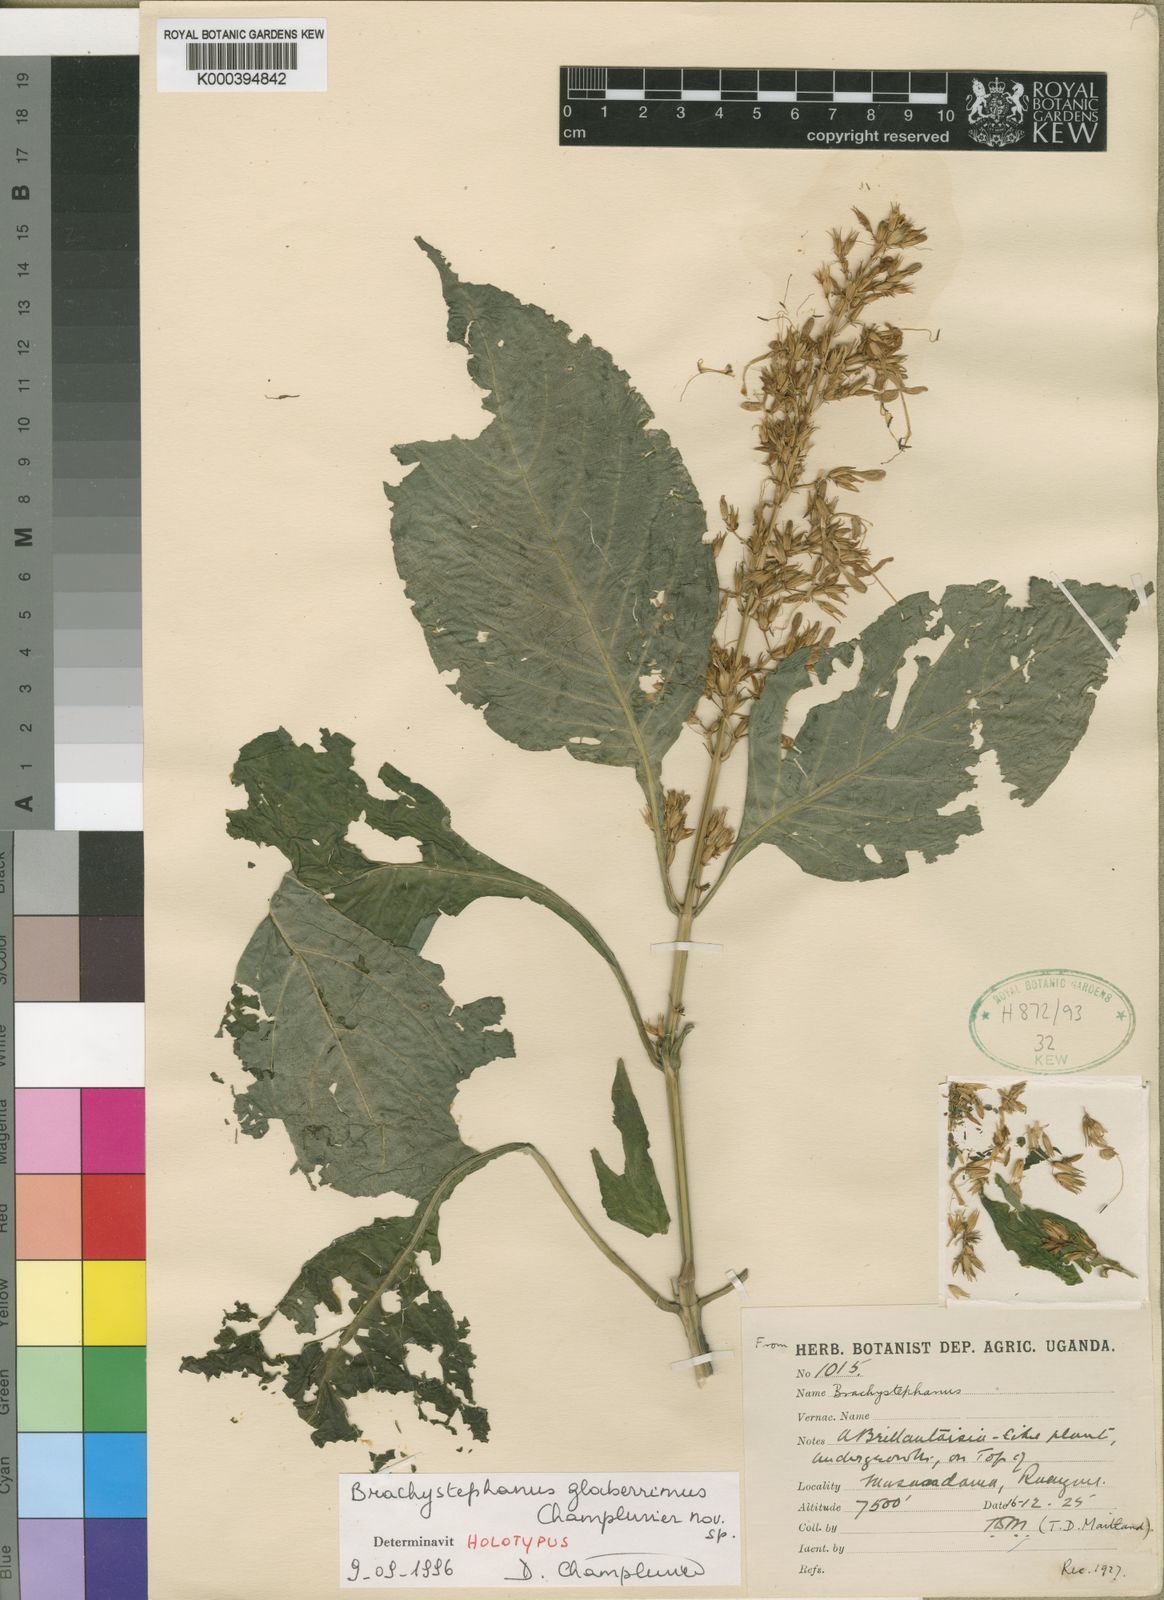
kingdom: Plantae
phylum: Tracheophyta
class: Magnoliopsida
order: Lamiales
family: Acanthaceae
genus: Brachystephanus
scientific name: Brachystephanus glaberrimus
